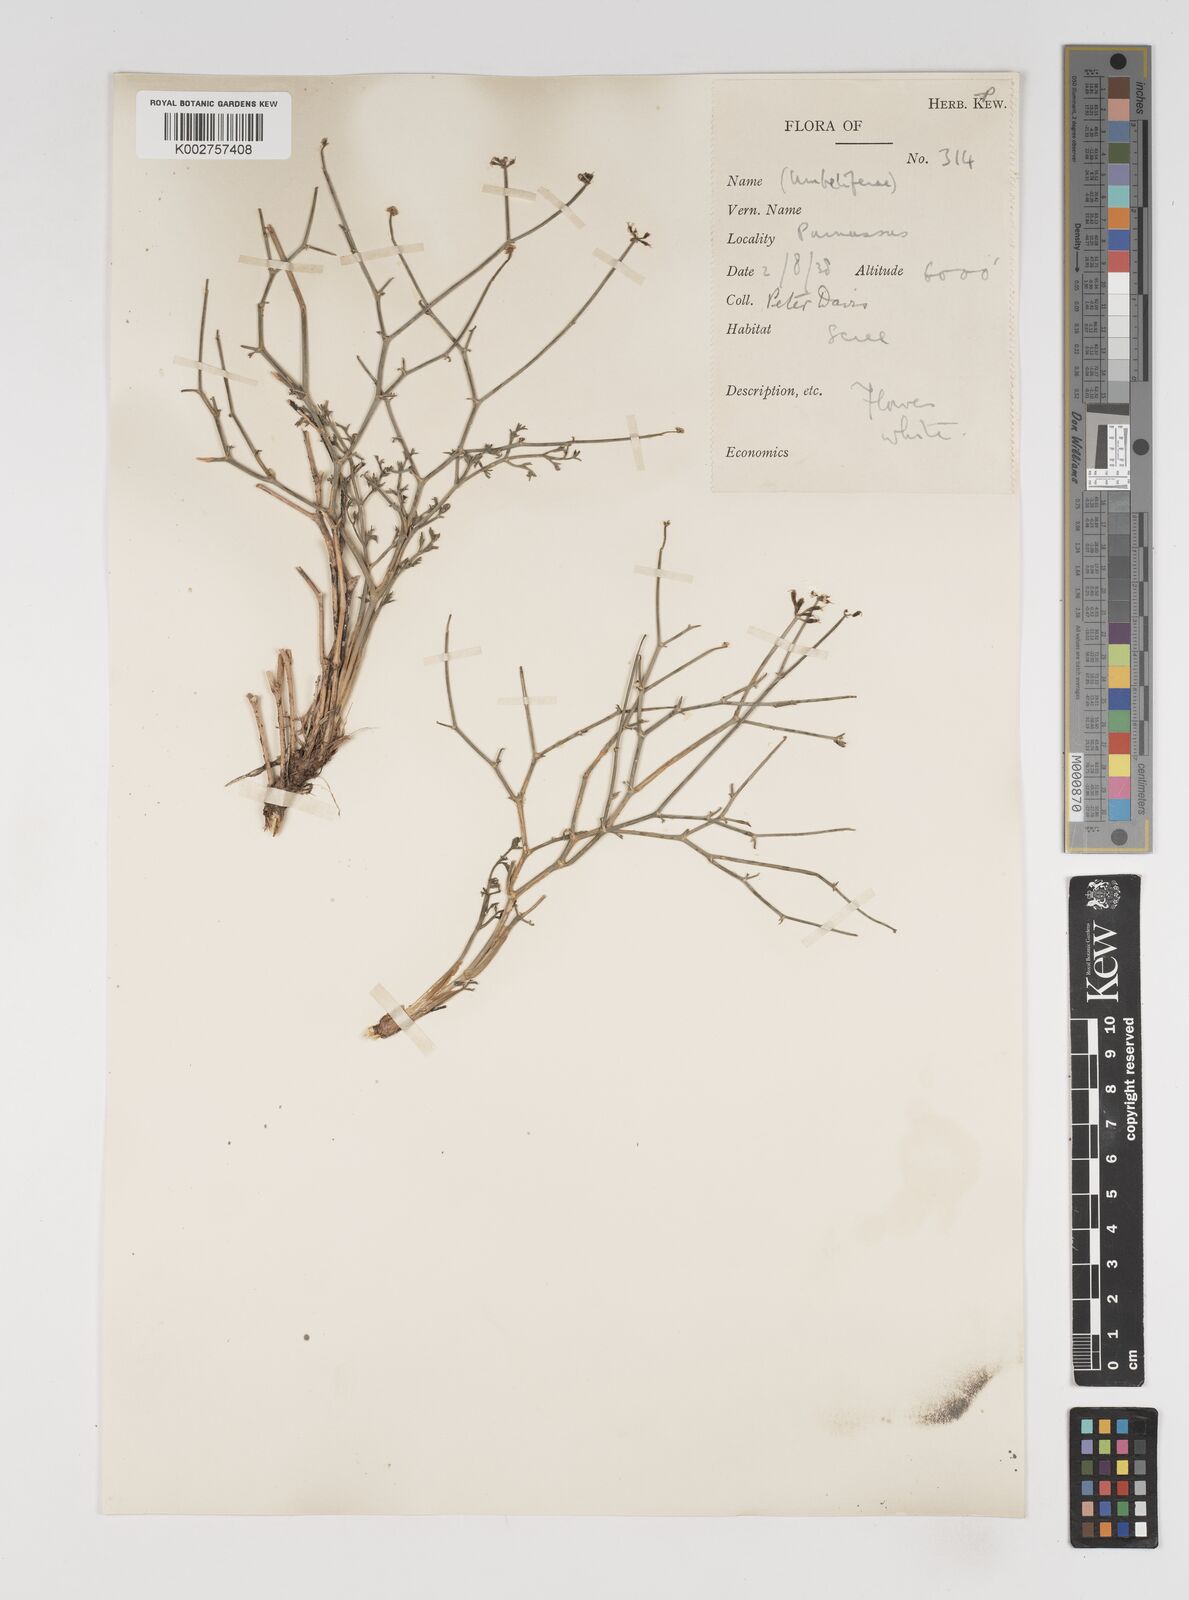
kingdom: Plantae
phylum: Tracheophyta
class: Magnoliopsida
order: Apiales
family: Apiaceae
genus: Thamnosciadium
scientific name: Thamnosciadium junceum
